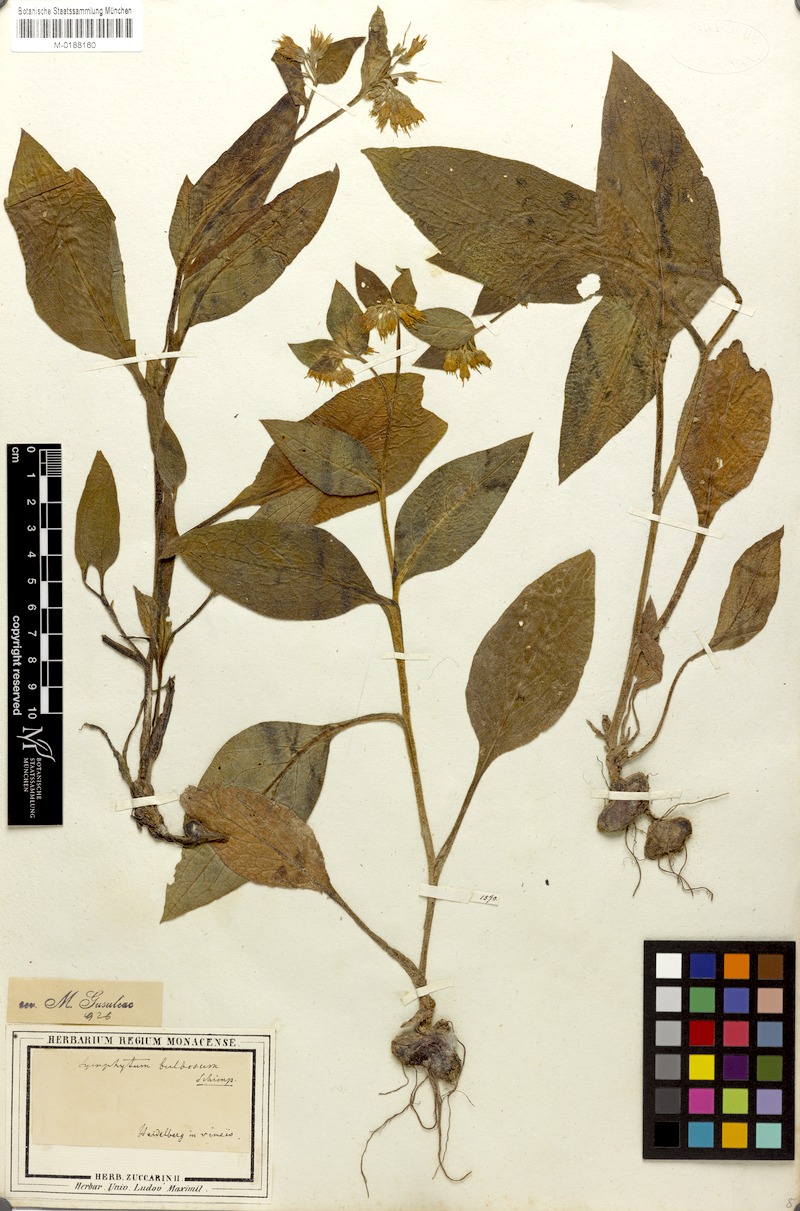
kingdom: Plantae
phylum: Tracheophyta
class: Magnoliopsida
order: Boraginales
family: Boraginaceae
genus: Symphytum
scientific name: Symphytum bulbosum
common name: Bulbous comfrey
